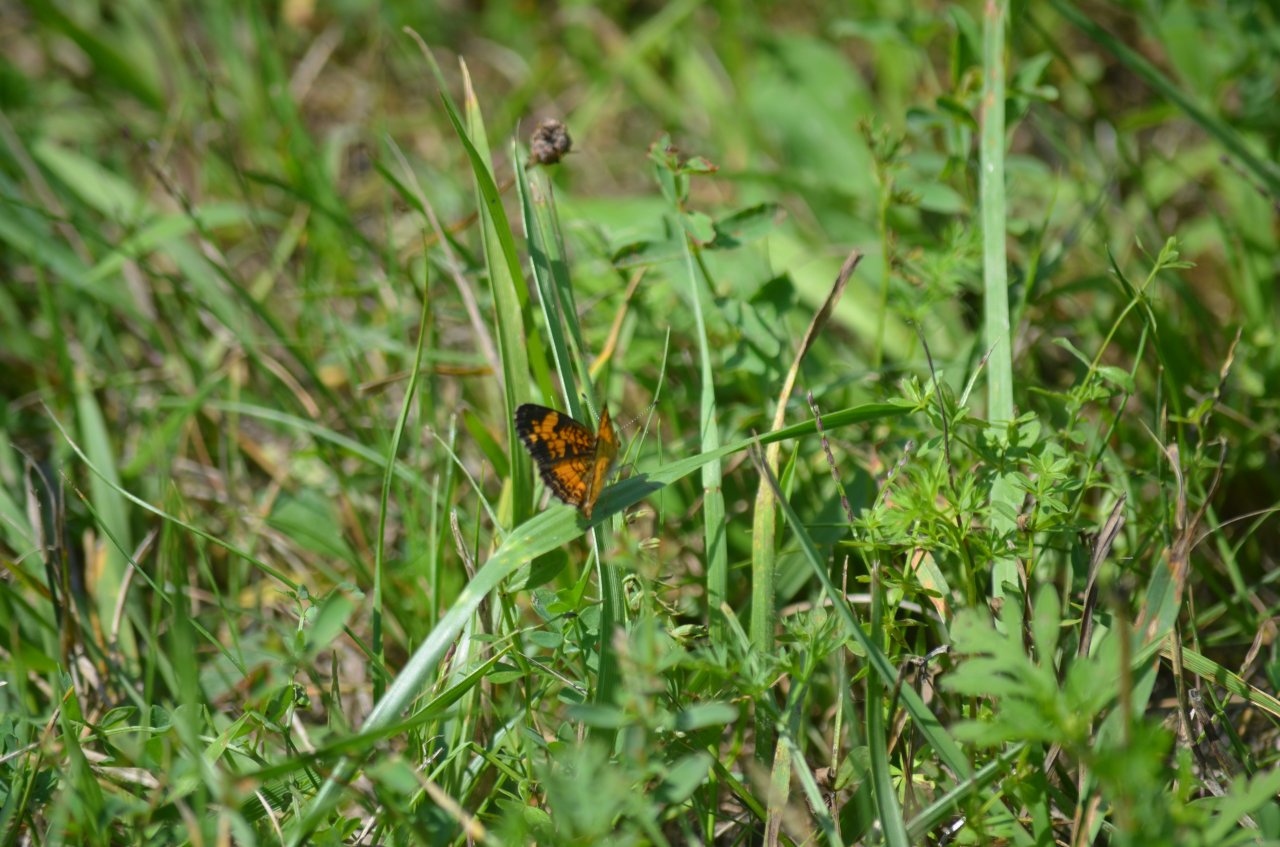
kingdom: Animalia
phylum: Arthropoda
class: Insecta
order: Lepidoptera
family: Nymphalidae
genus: Phyciodes
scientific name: Phyciodes tharos
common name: Pearl Crescent
